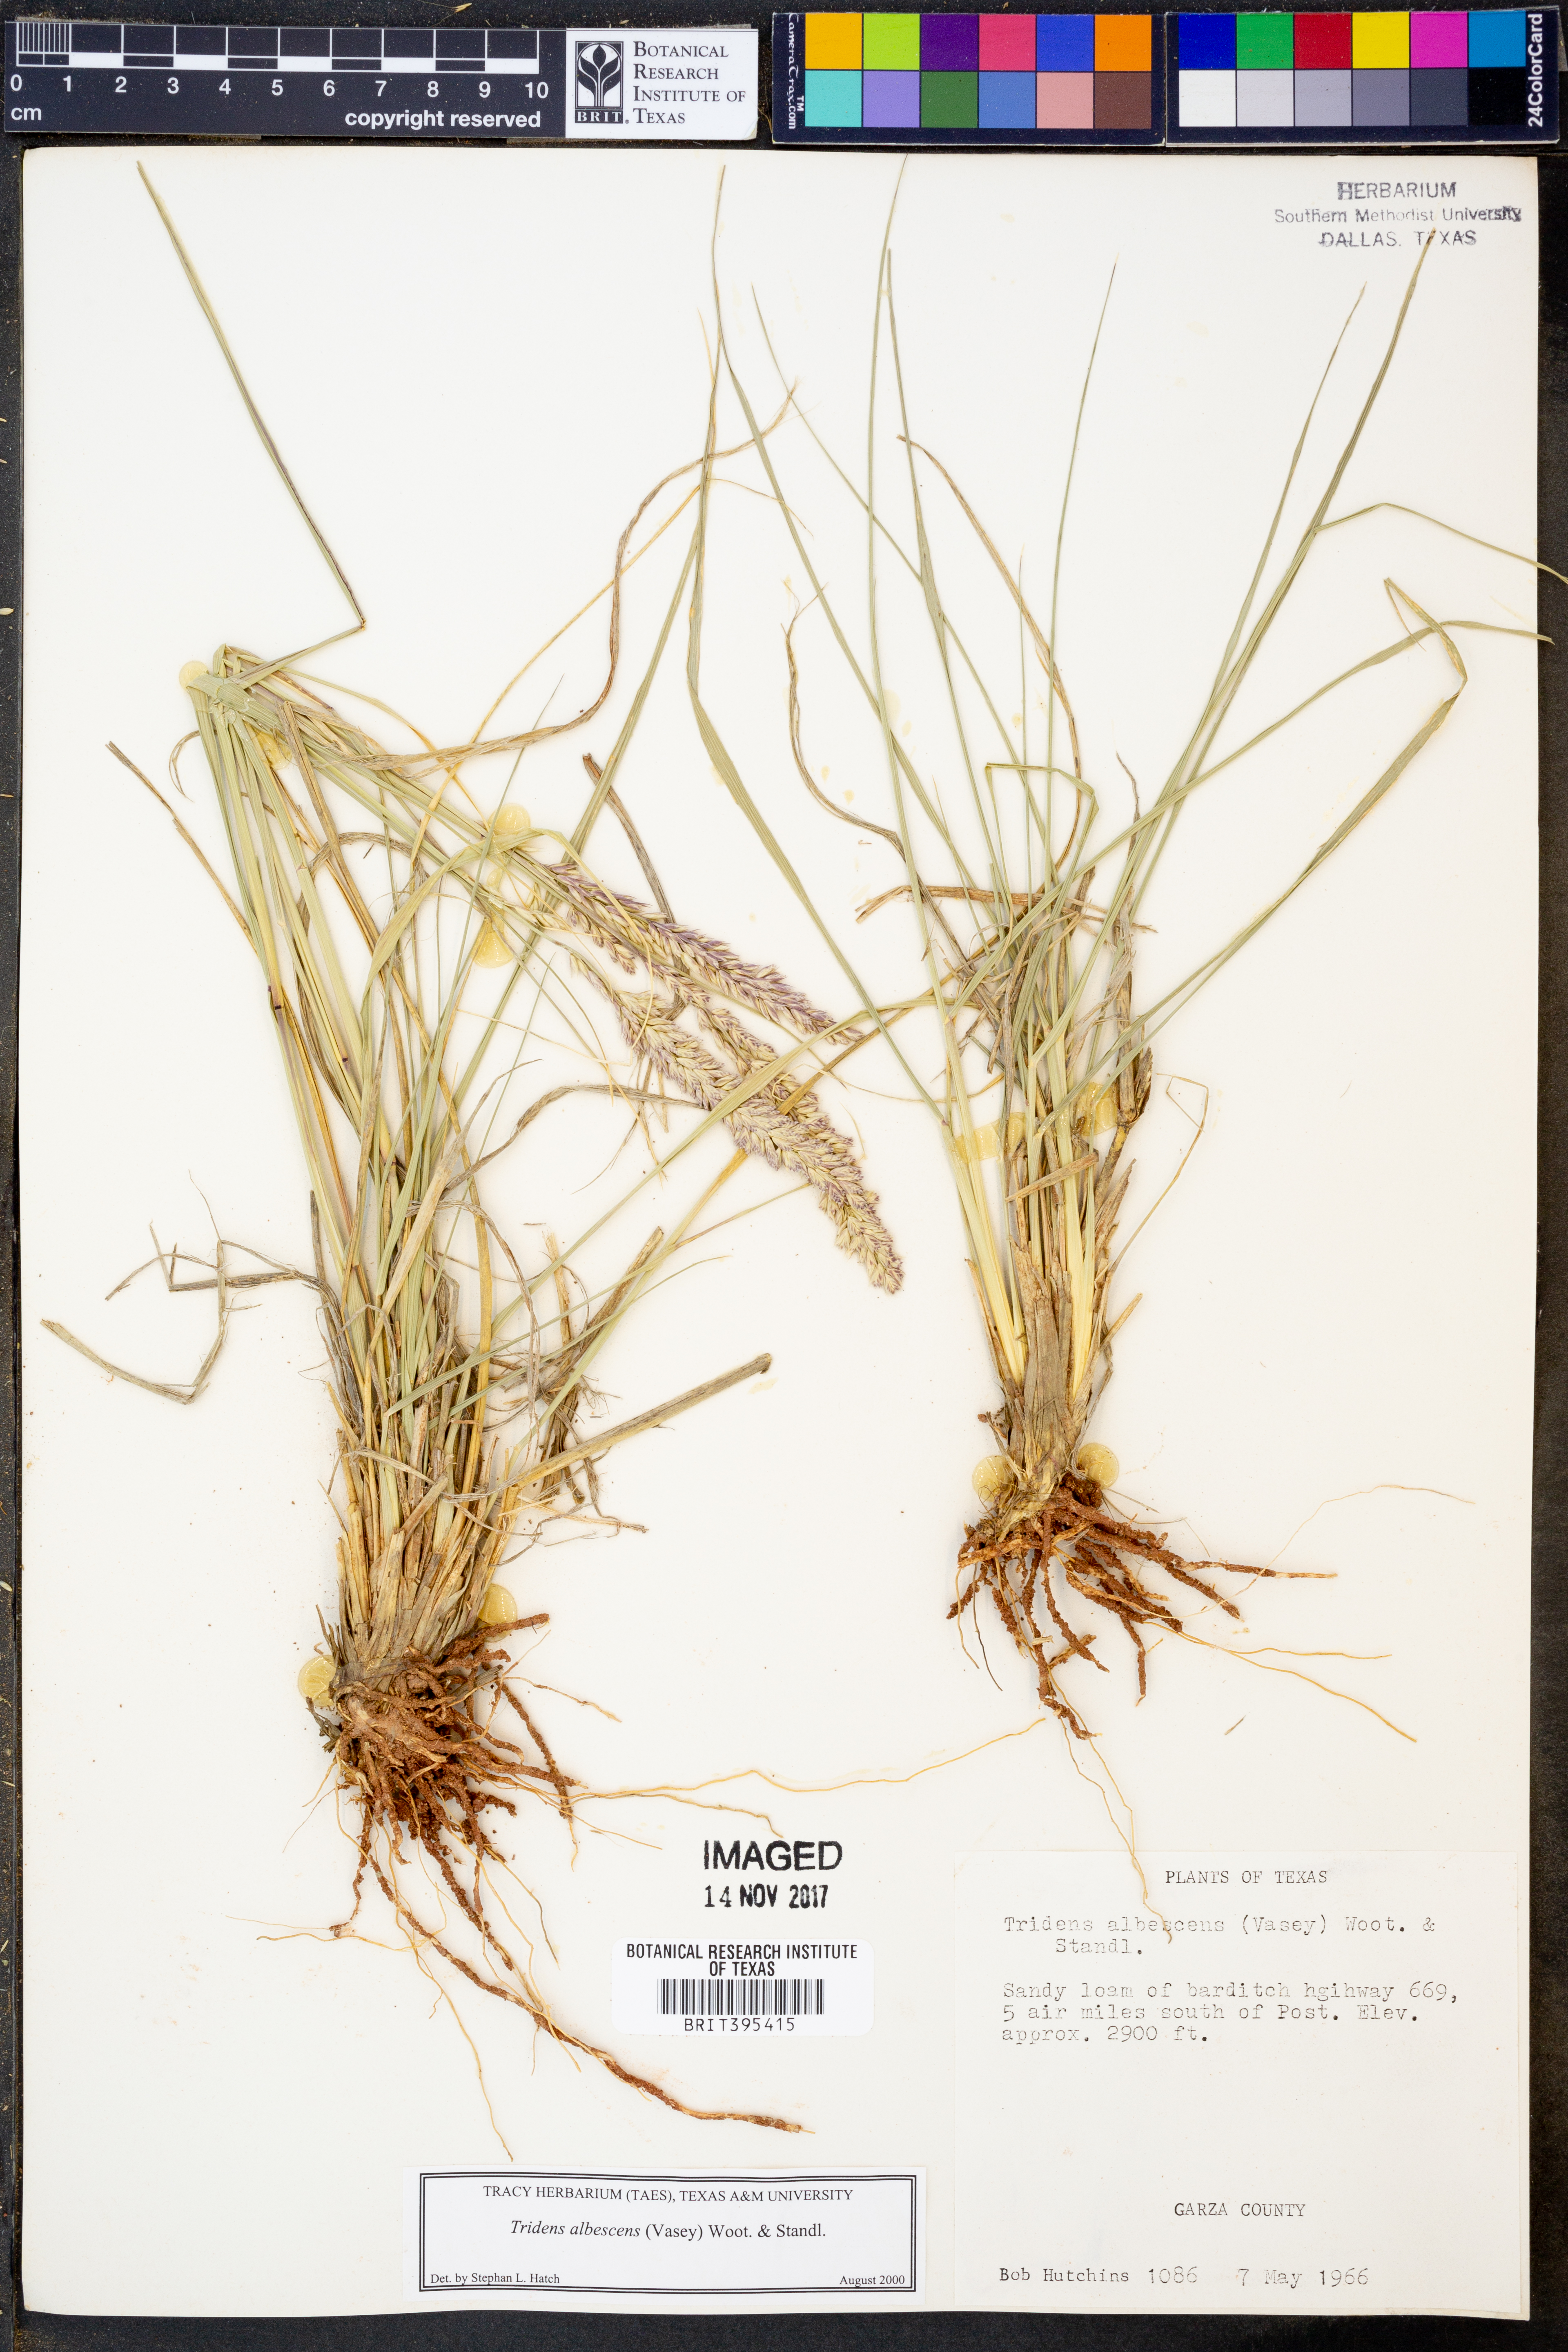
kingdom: Plantae
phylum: Tracheophyta
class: Liliopsida
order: Poales
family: Poaceae
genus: Tridens
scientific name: Tridens albescens
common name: White tridens
